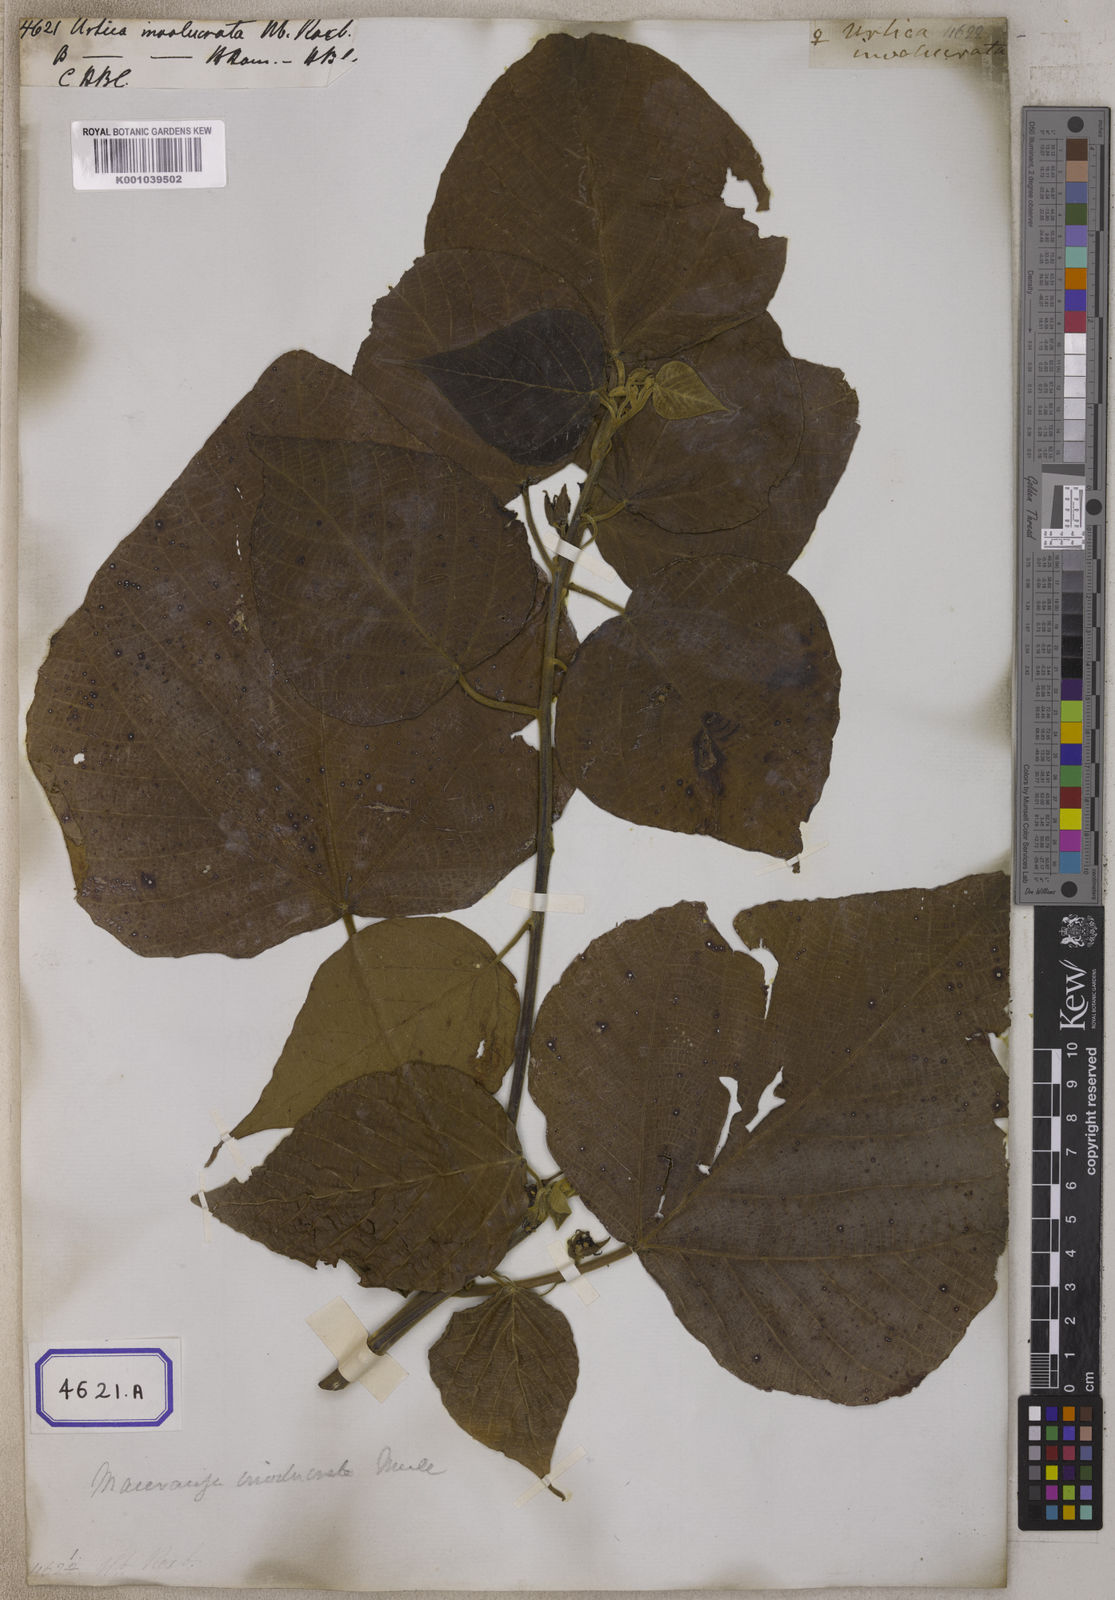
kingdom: Plantae
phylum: Tracheophyta
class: Magnoliopsida
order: Malpighiales
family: Euphorbiaceae
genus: Macaranga
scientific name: Macaranga involucrata
